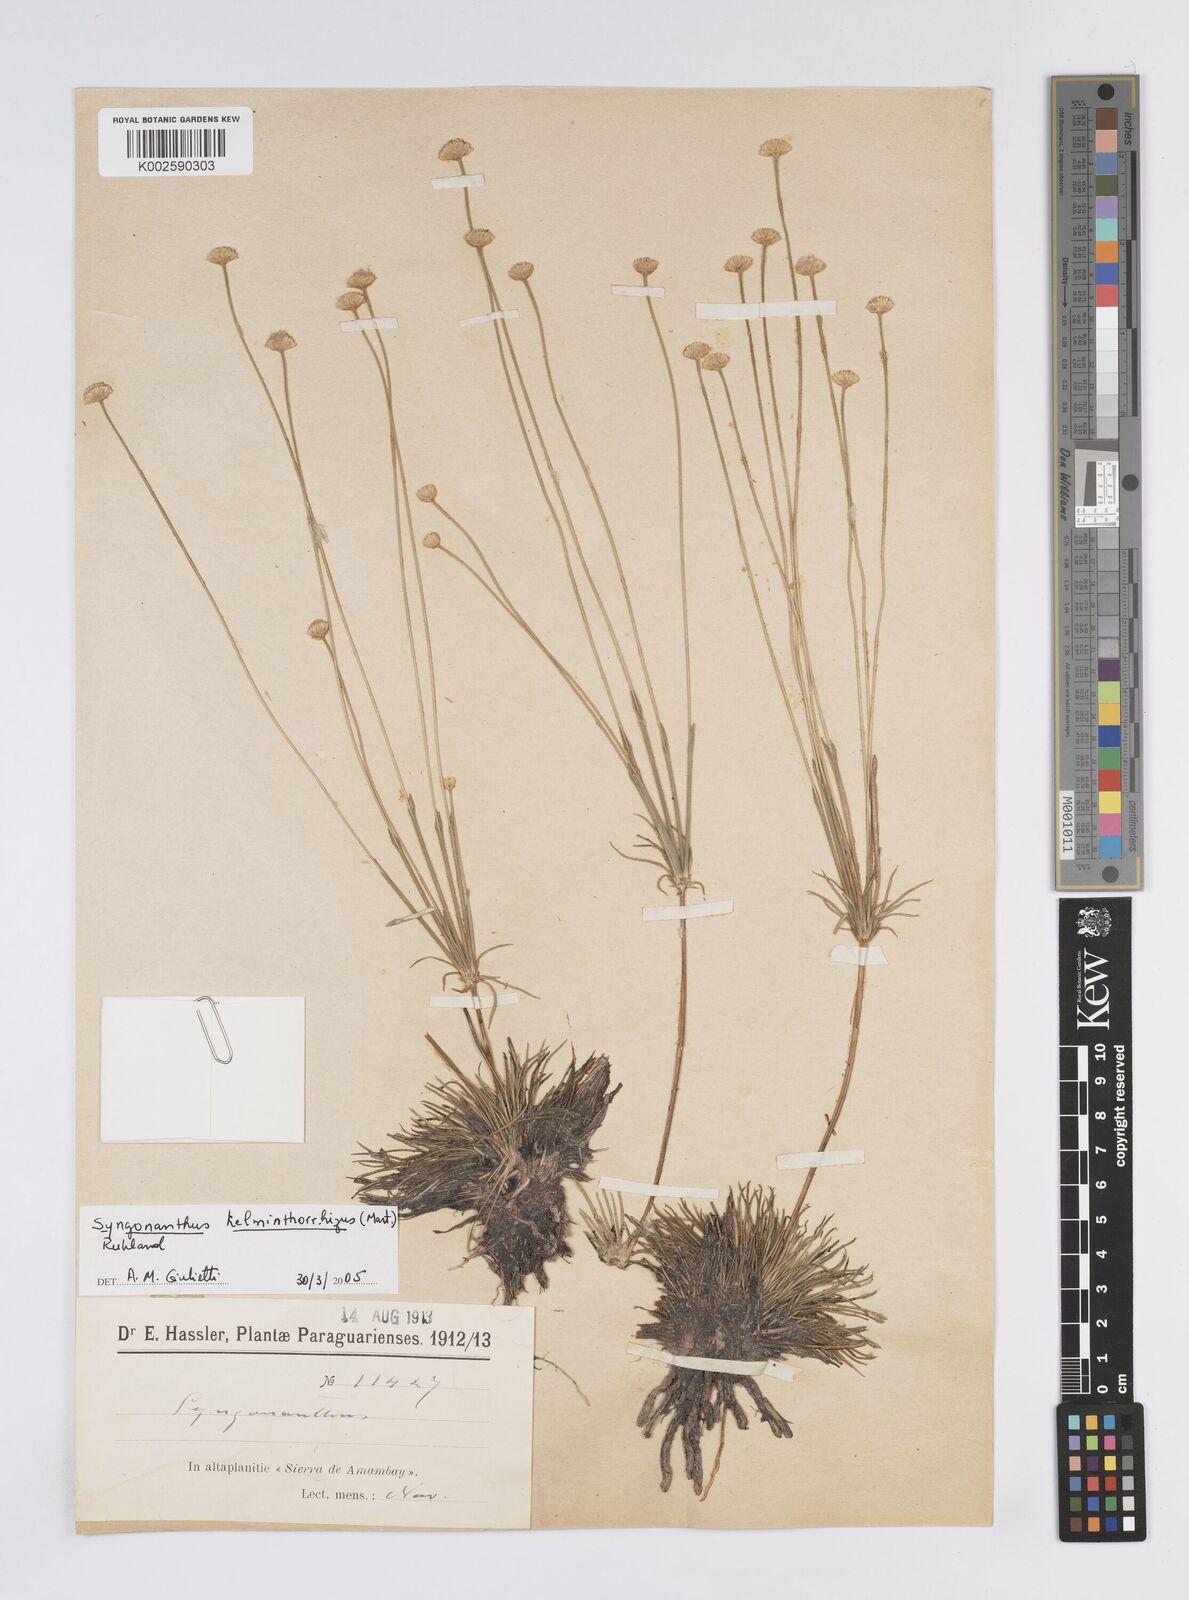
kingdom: Plantae
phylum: Tracheophyta
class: Liliopsida
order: Poales
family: Eriocaulaceae
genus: Syngonanthus
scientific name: Syngonanthus helminthorrhizus
